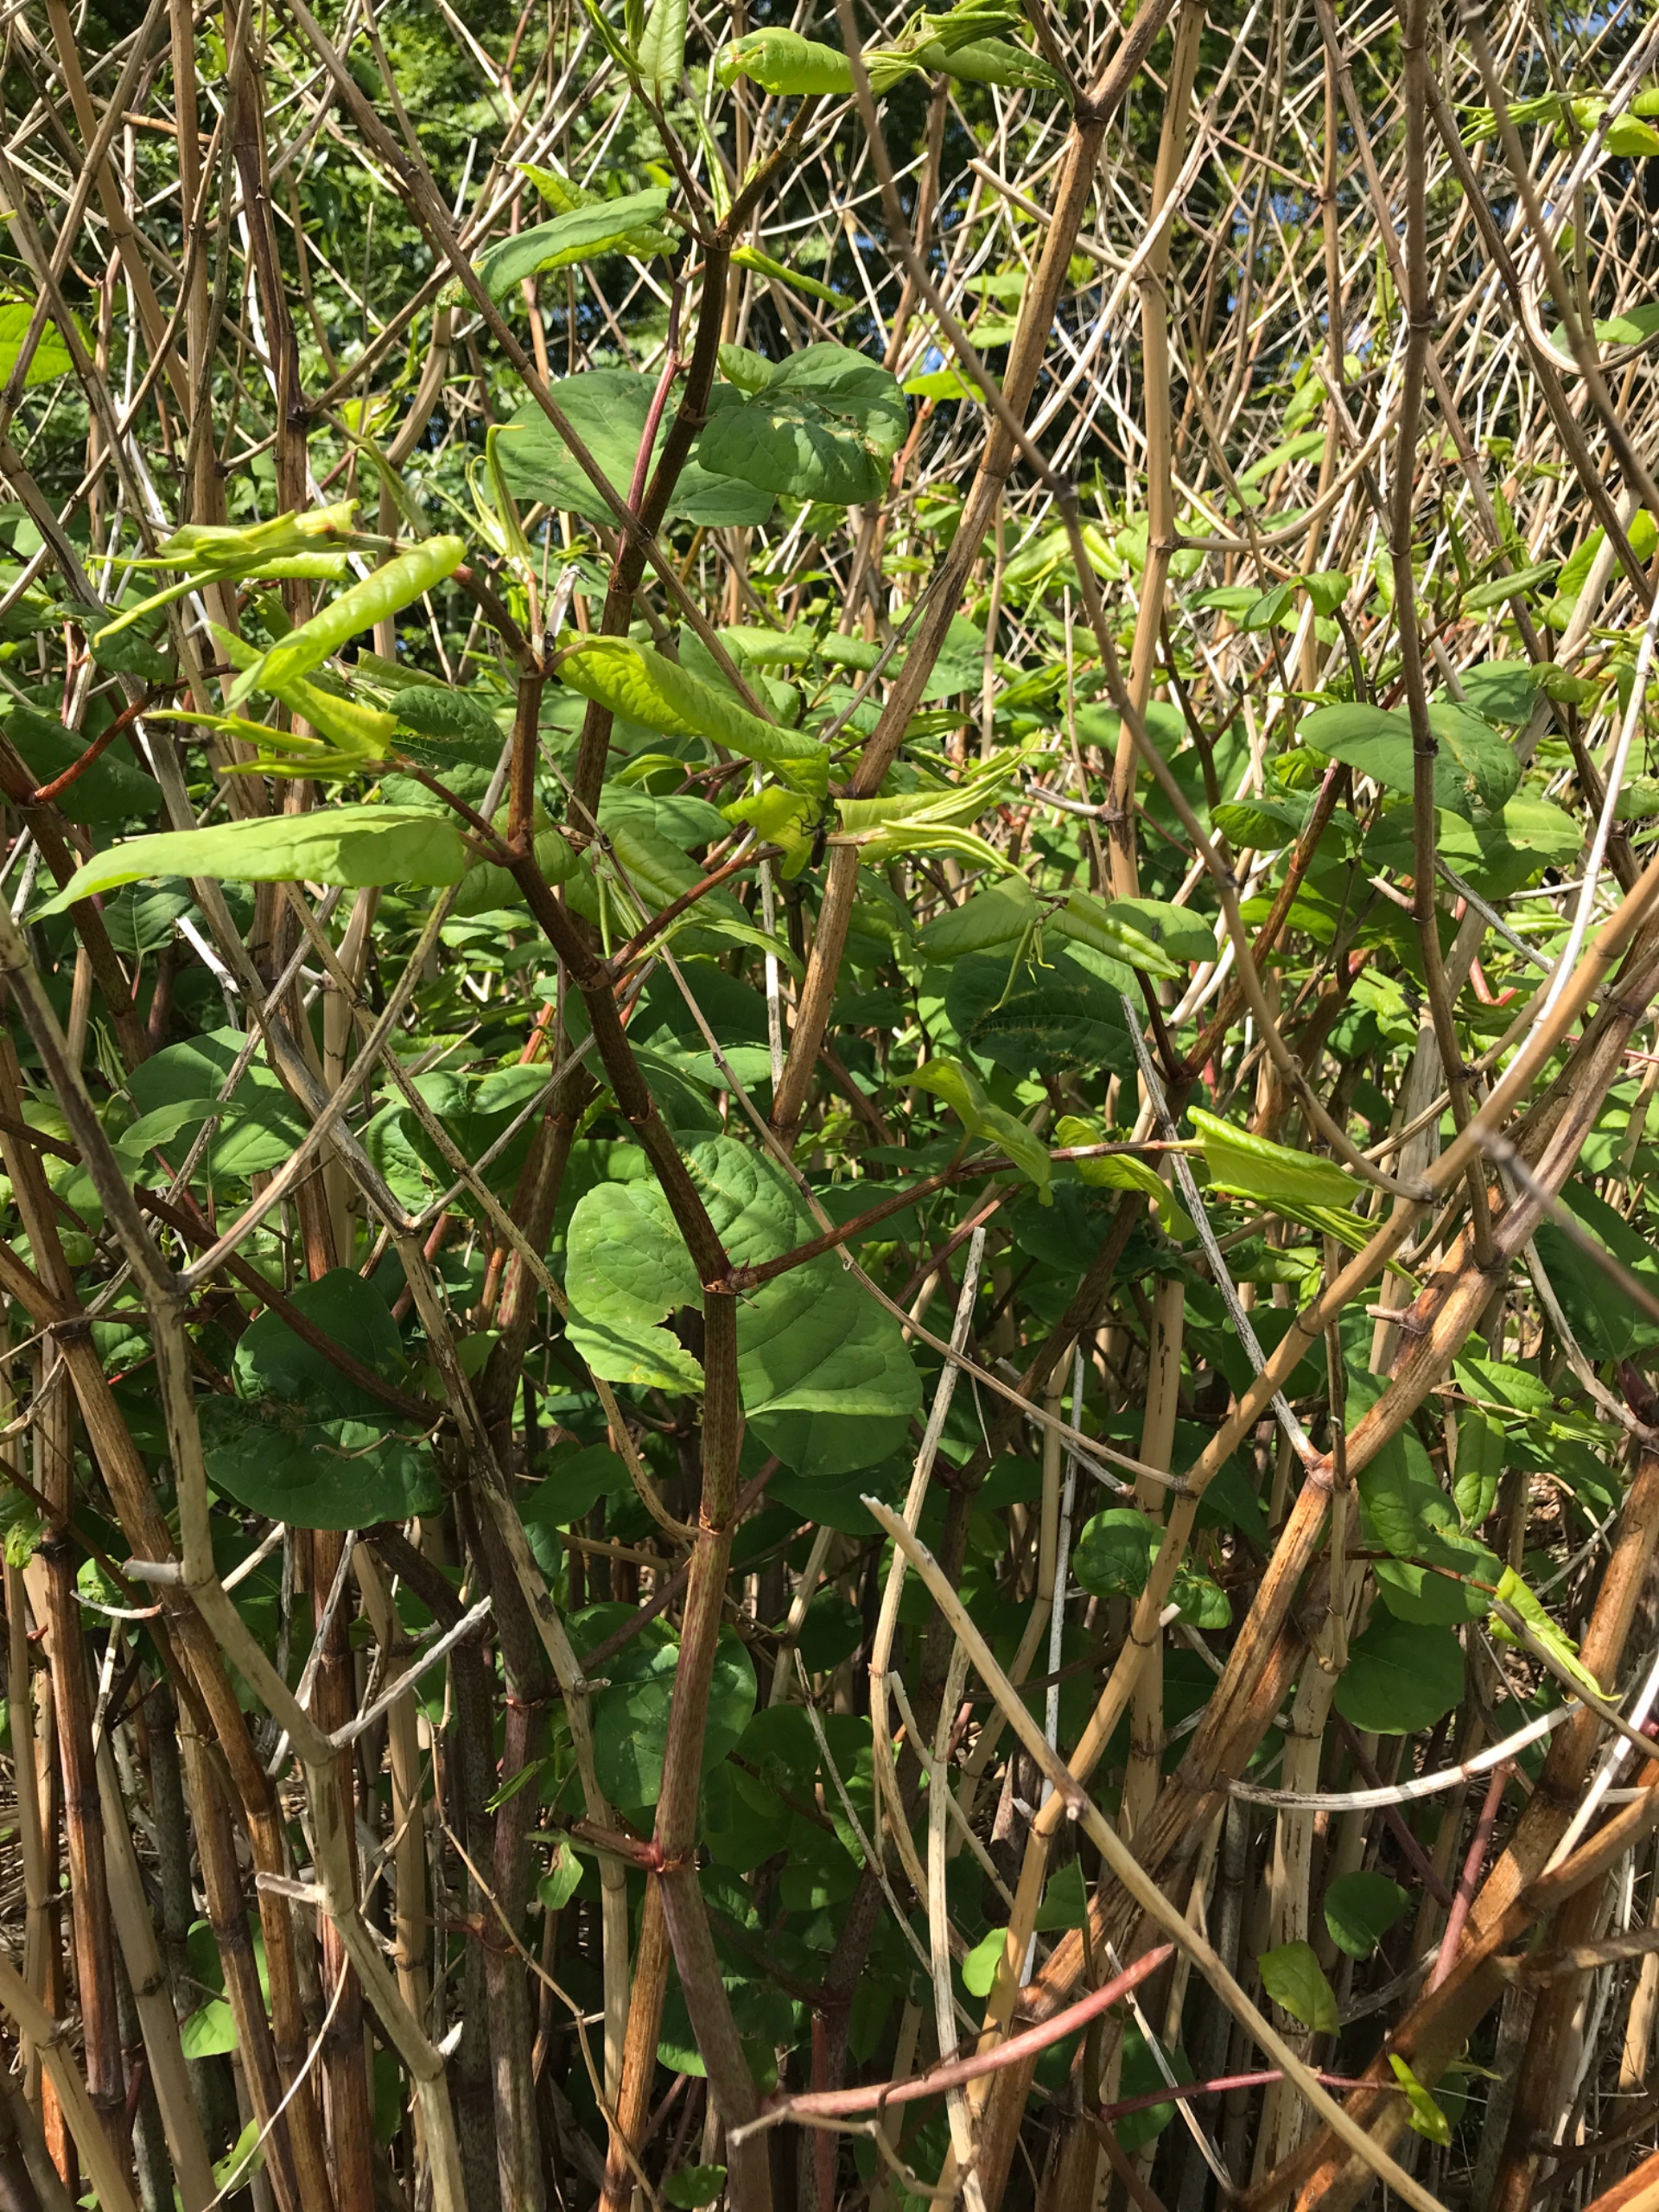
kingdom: Plantae
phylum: Tracheophyta
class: Magnoliopsida
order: Caryophyllales
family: Polygonaceae
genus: Reynoutria
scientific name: Reynoutria japonica
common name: Japan-pileurt
